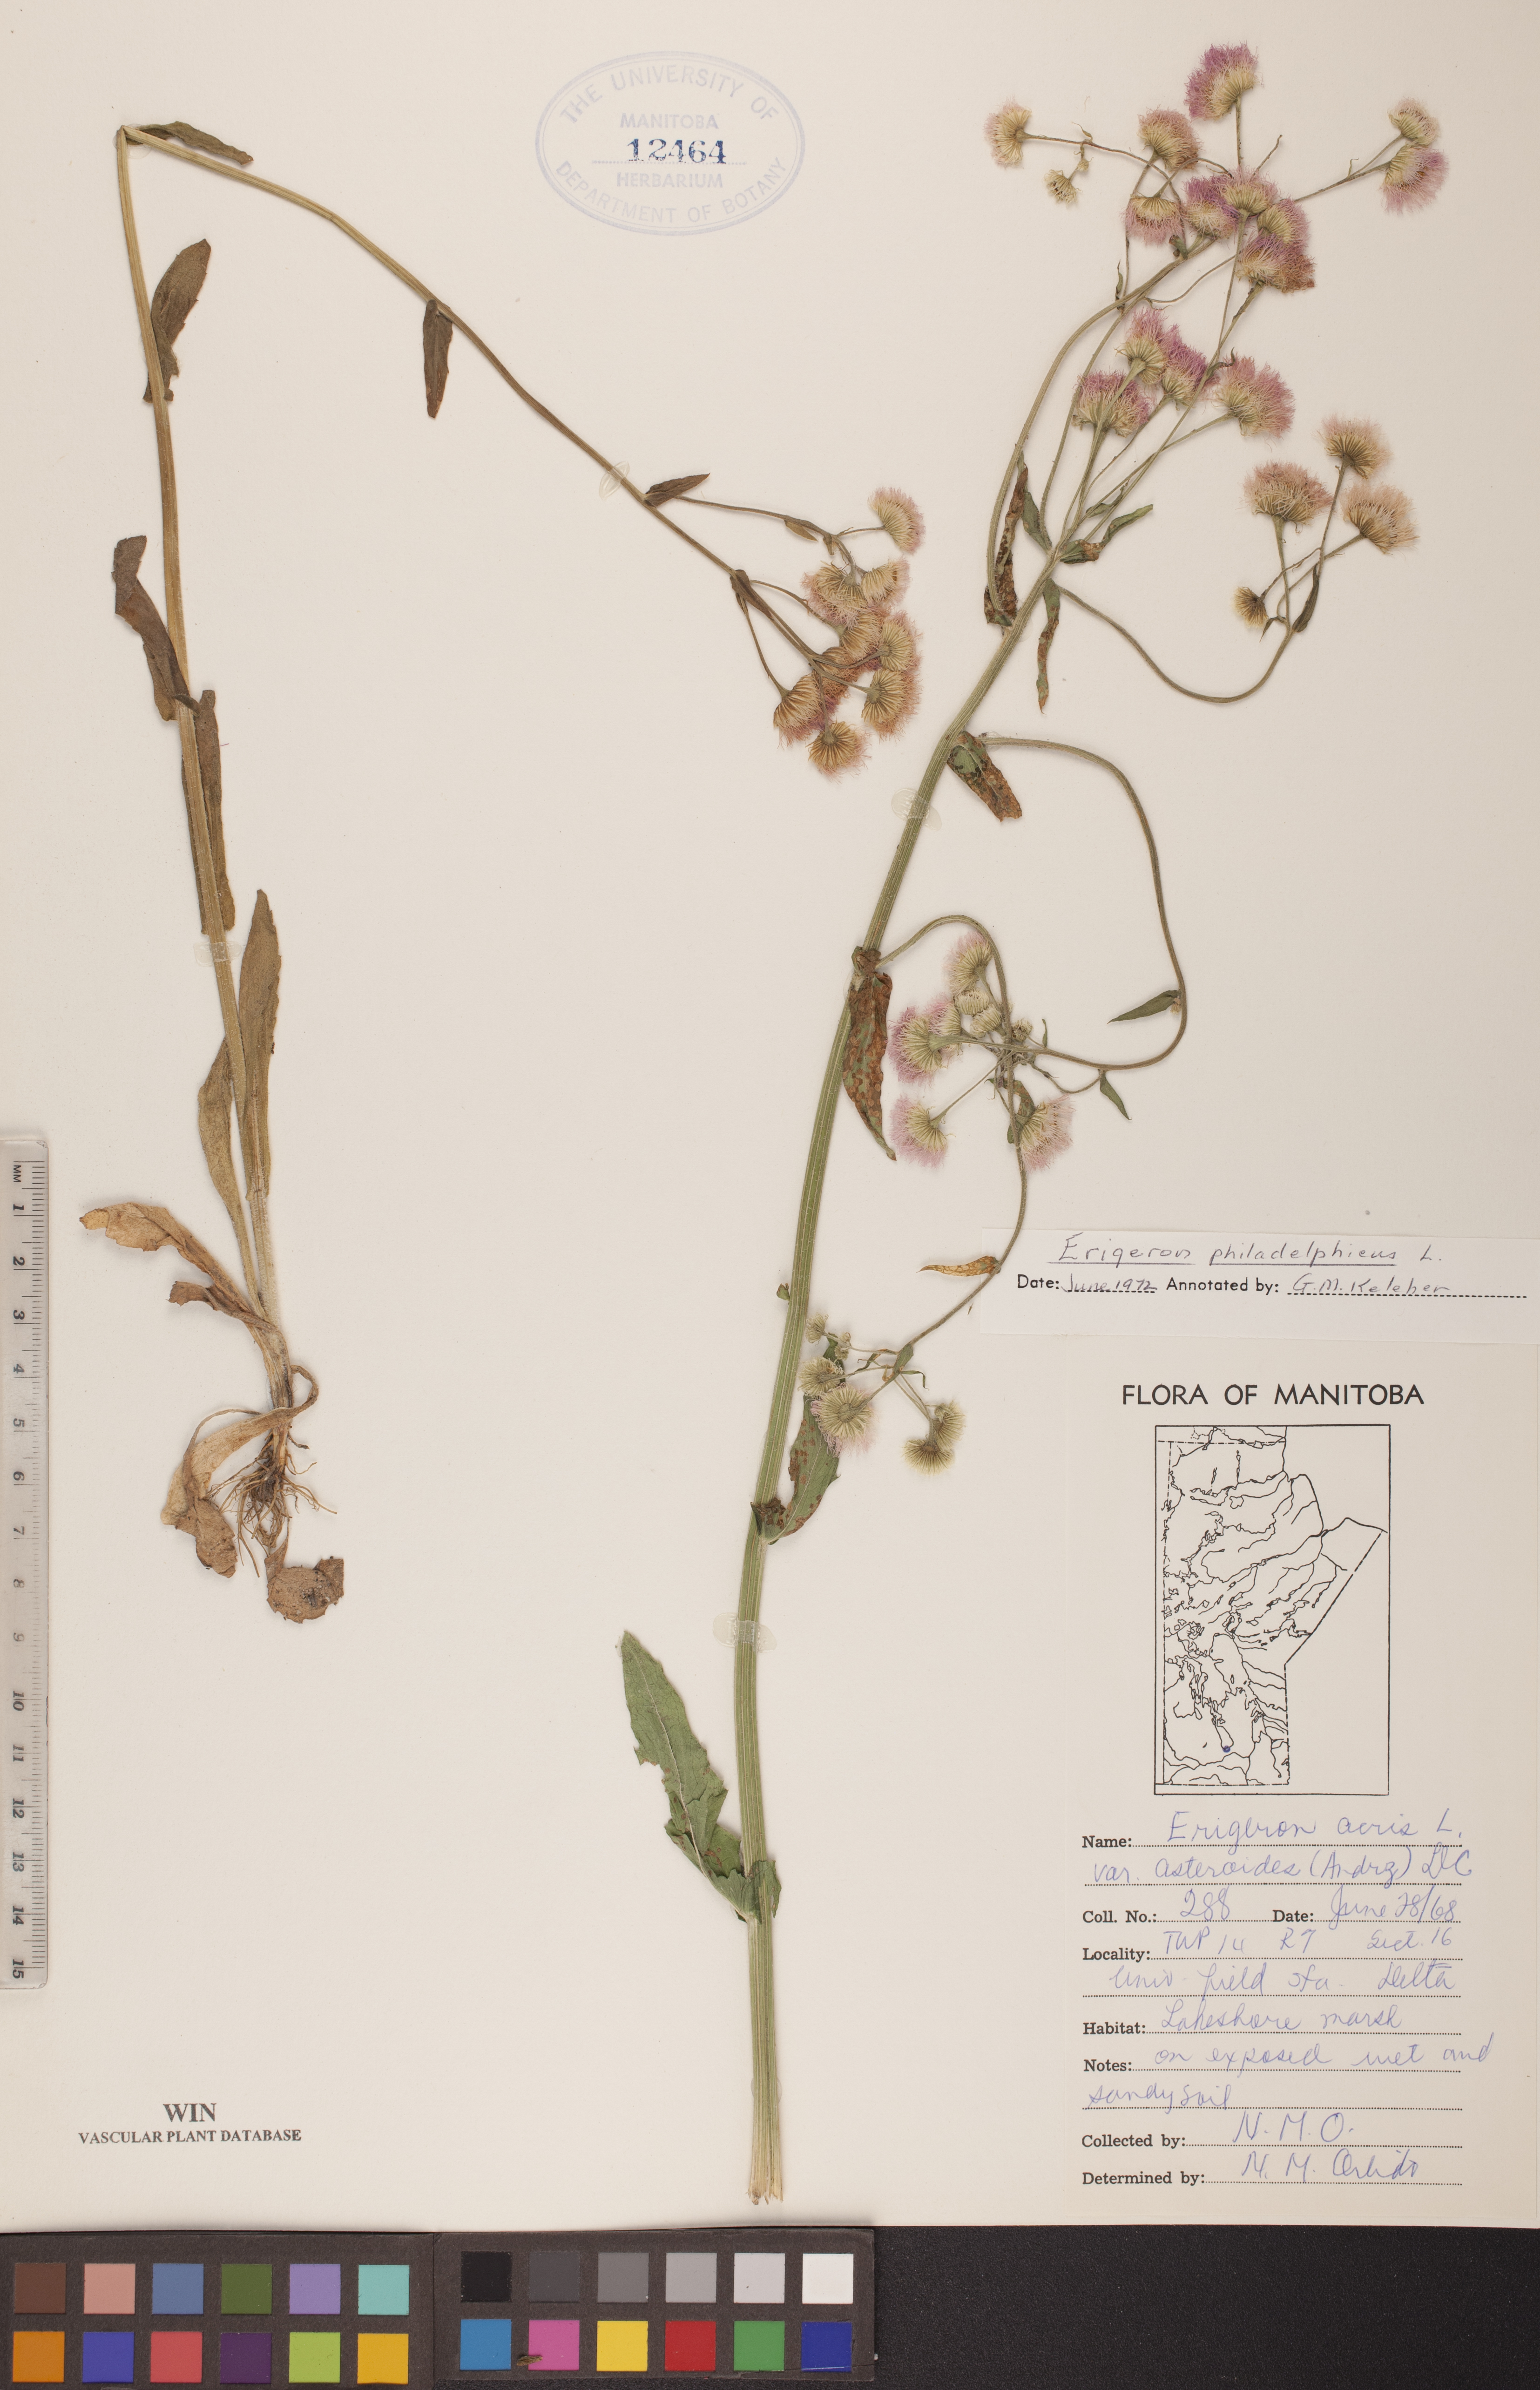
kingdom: Plantae
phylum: Tracheophyta
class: Magnoliopsida
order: Asterales
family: Asteraceae
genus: Erigeron
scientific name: Erigeron philadelphicus
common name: Robin's-plantain
